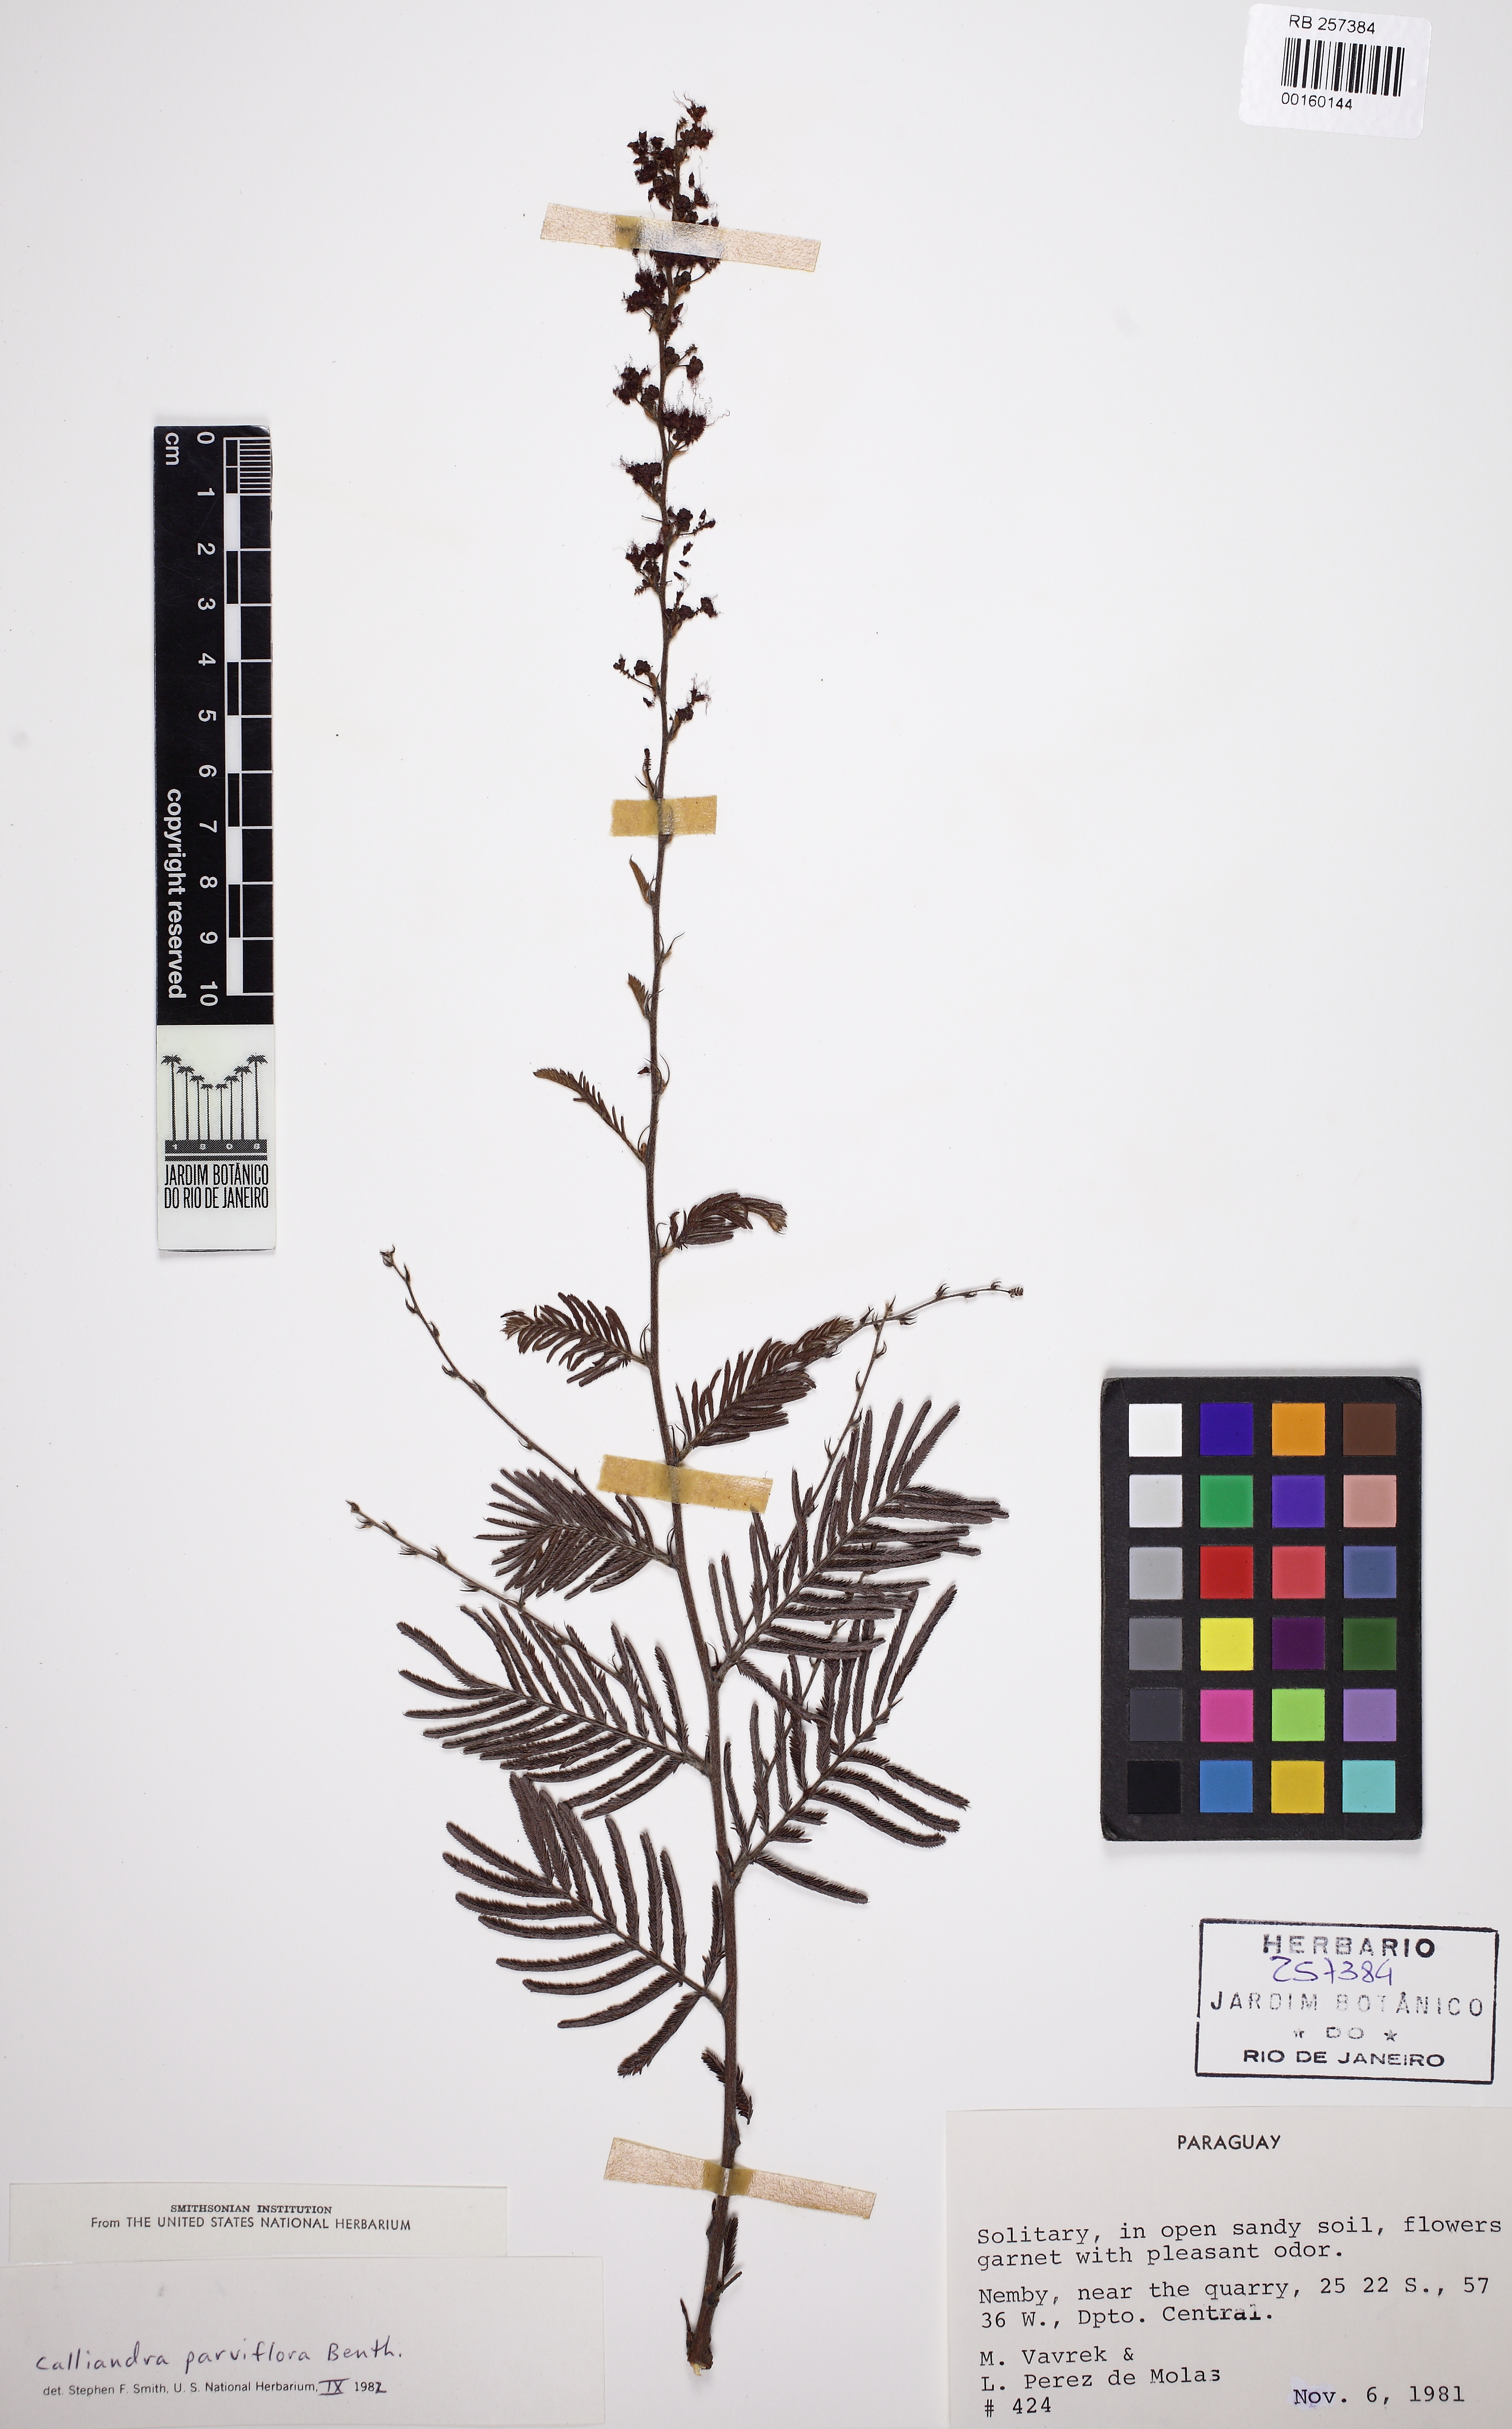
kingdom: Plantae
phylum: Tracheophyta
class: Magnoliopsida
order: Fabales
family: Fabaceae
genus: Calliandra
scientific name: Calliandra parviflora
